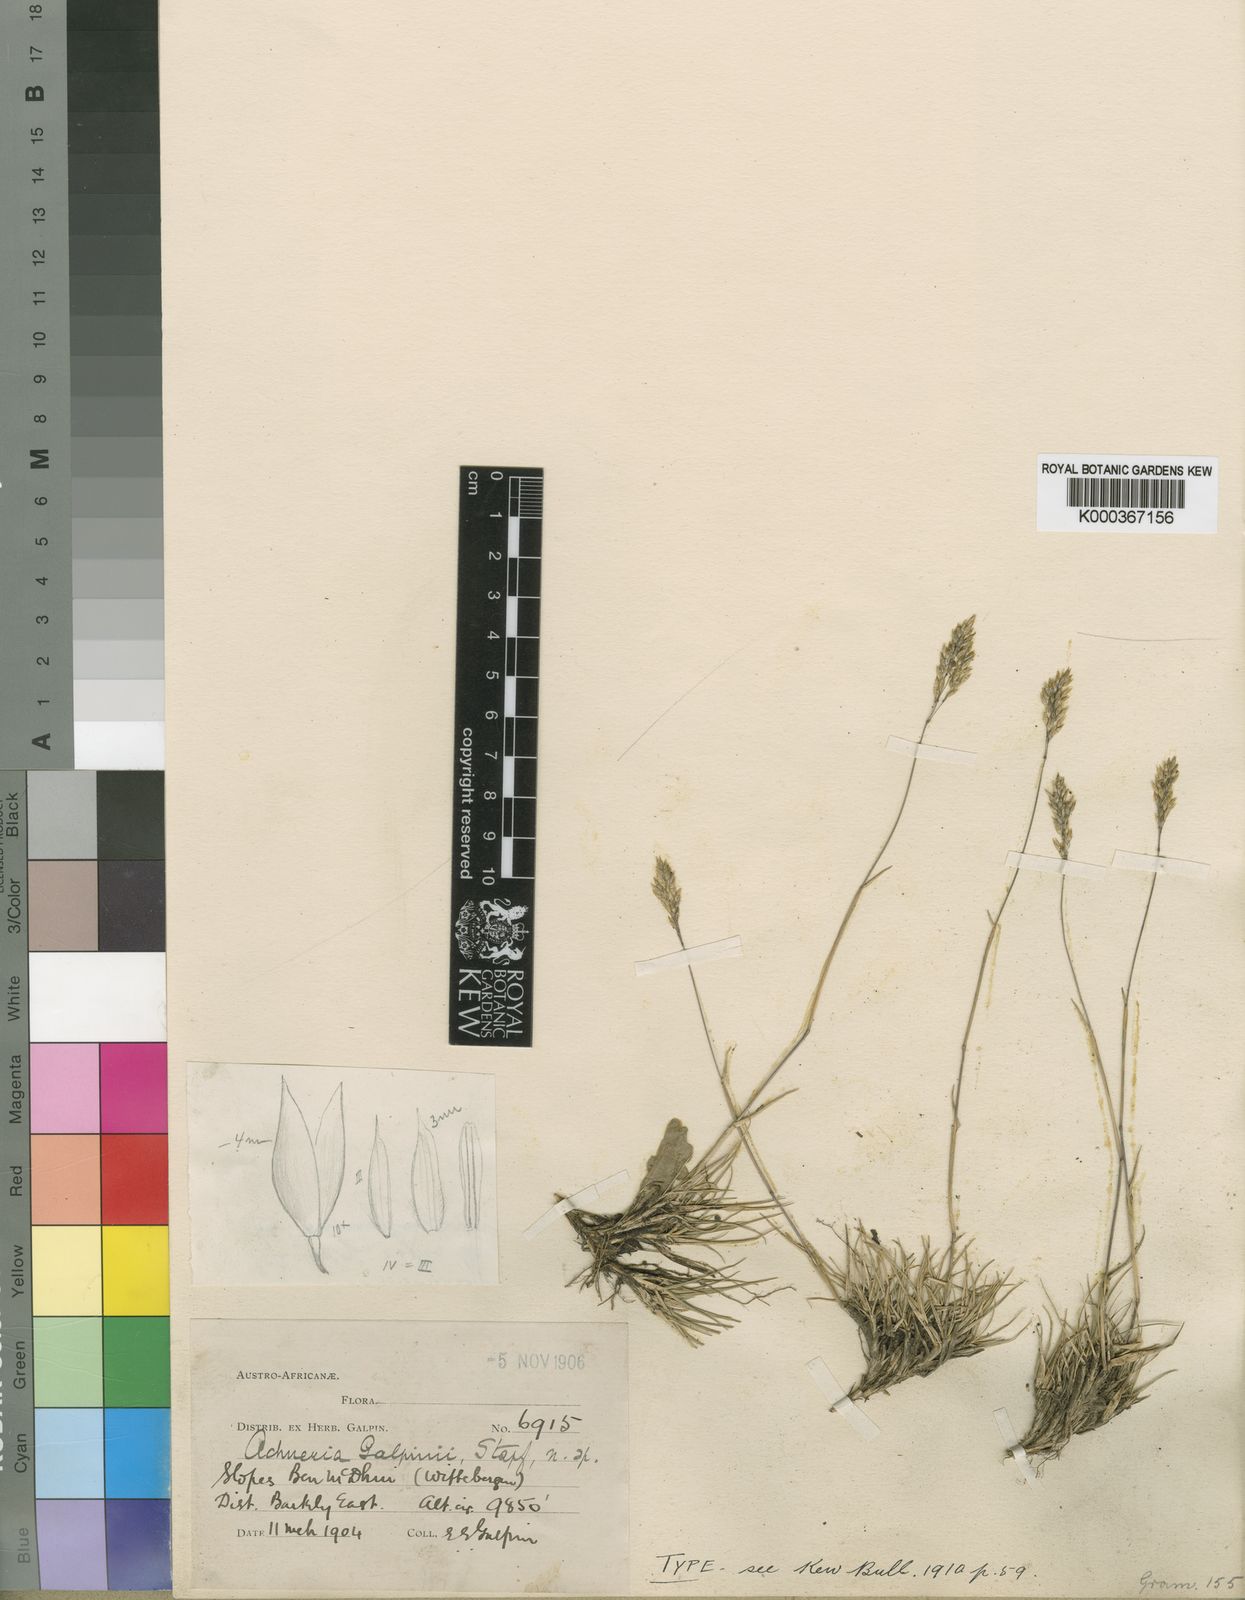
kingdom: Plantae
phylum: Tracheophyta
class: Liliopsida
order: Poales
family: Poaceae
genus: Pentameris
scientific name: Pentameris galpinii
